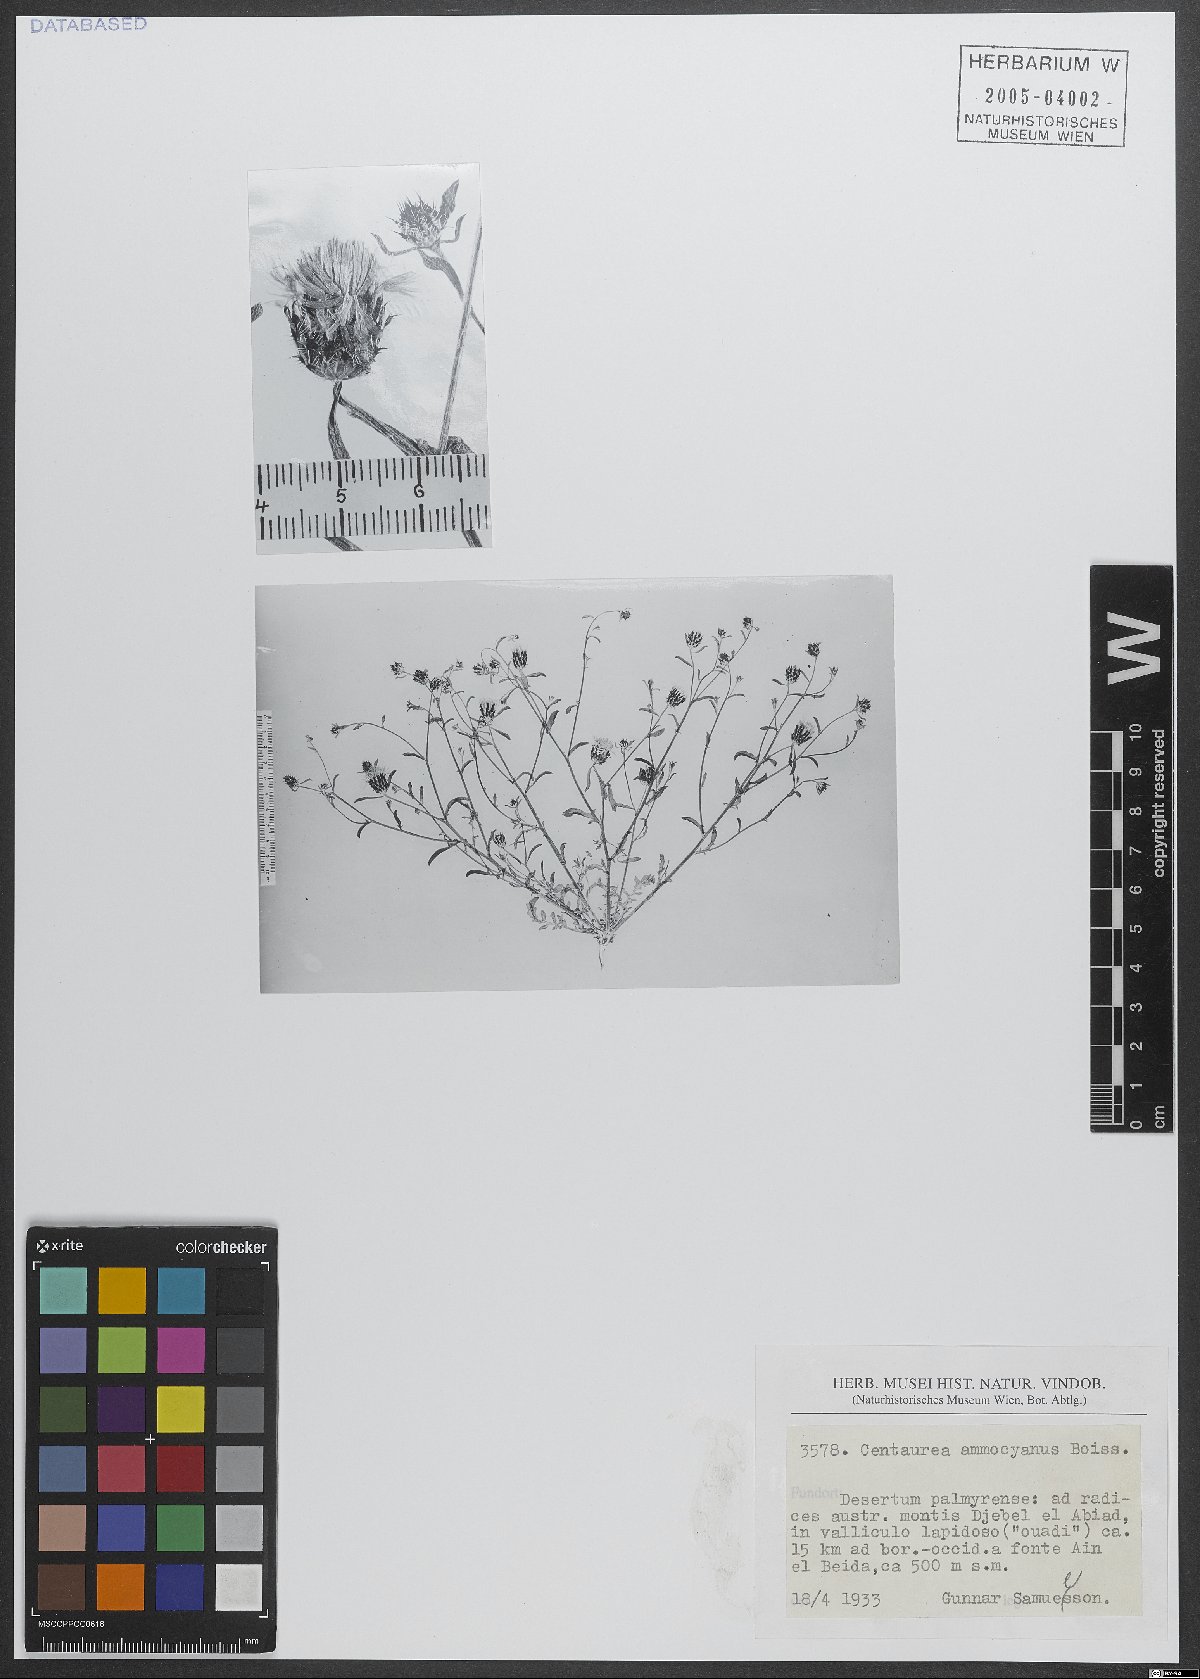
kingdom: Plantae
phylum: Tracheophyta
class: Magnoliopsida
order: Asterales
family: Asteraceae
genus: Centaurea
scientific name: Centaurea ammocyanus
